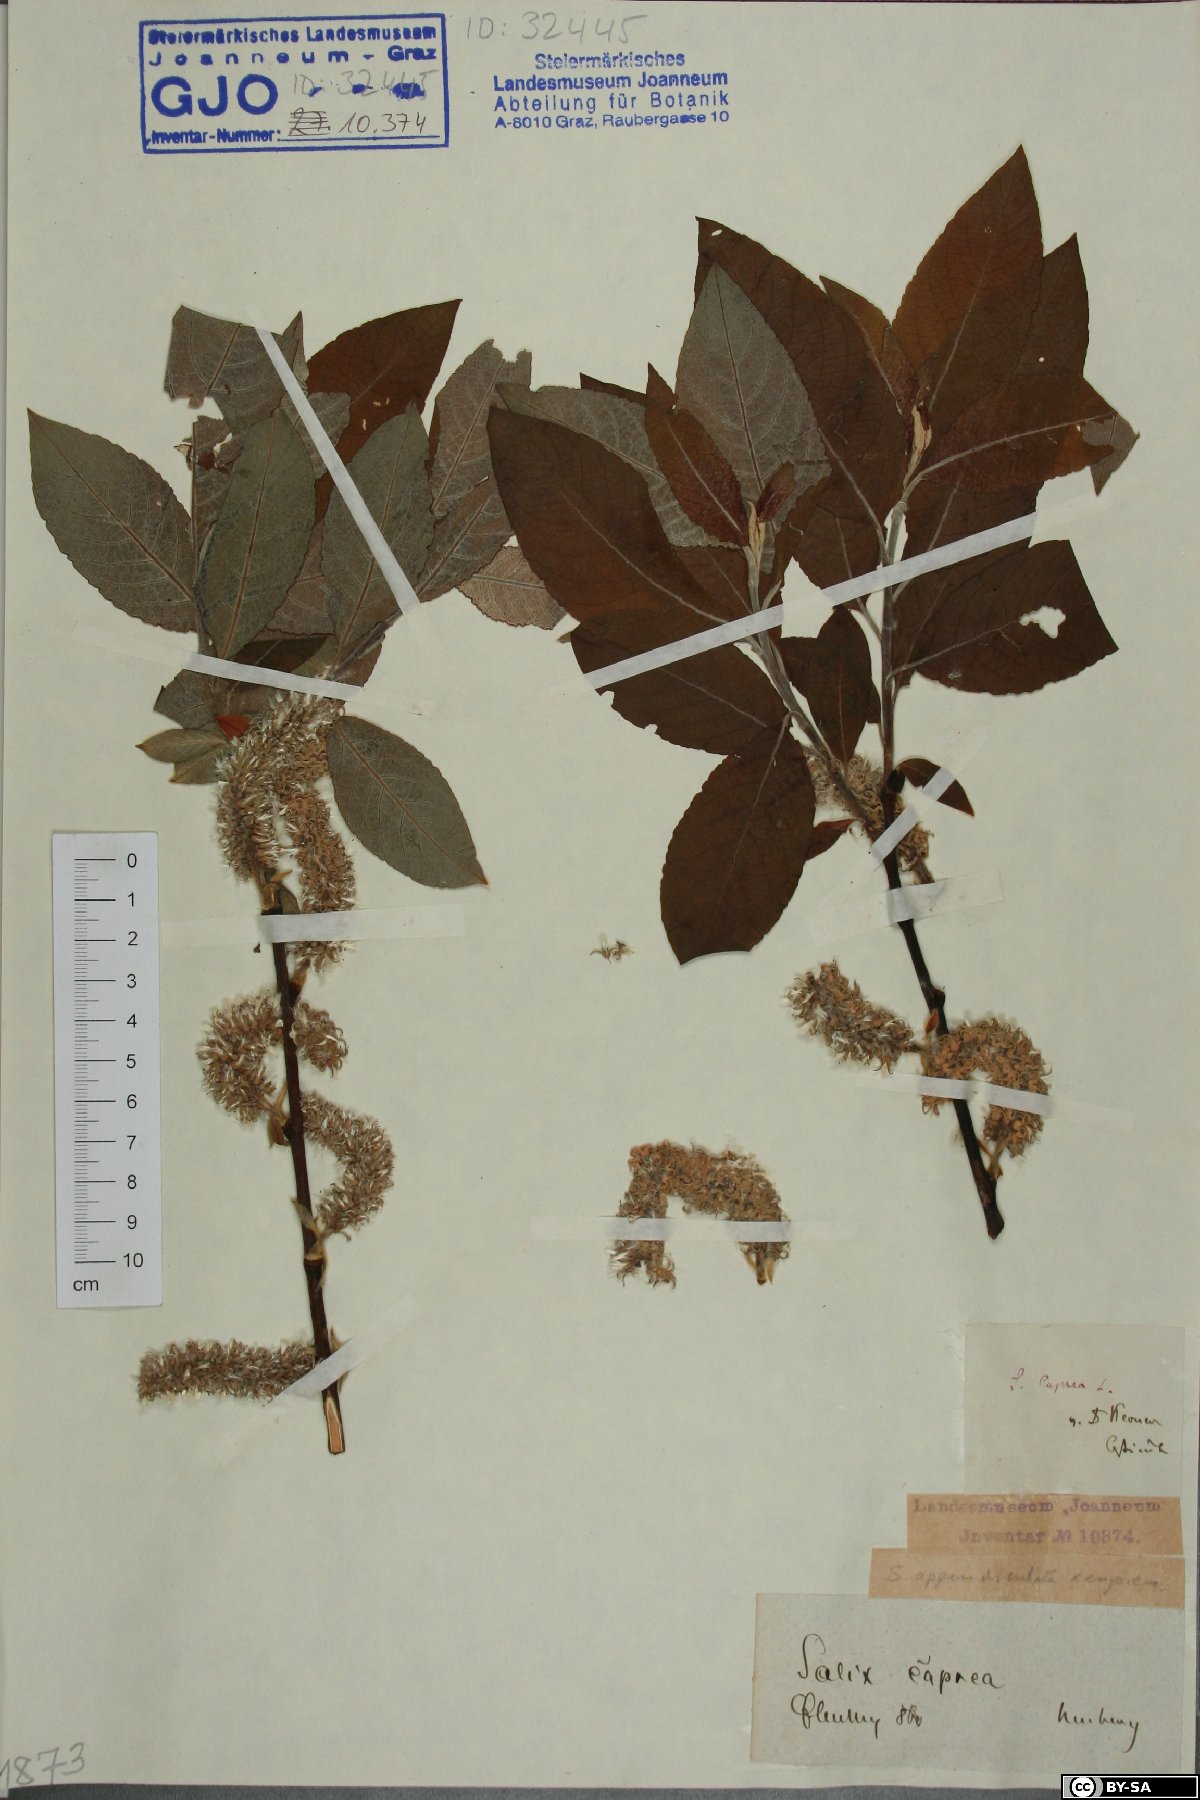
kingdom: Plantae
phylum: Tracheophyta
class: Magnoliopsida
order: Malpighiales
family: Salicaceae
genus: Salix
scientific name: Salix caprea
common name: Goat willow
